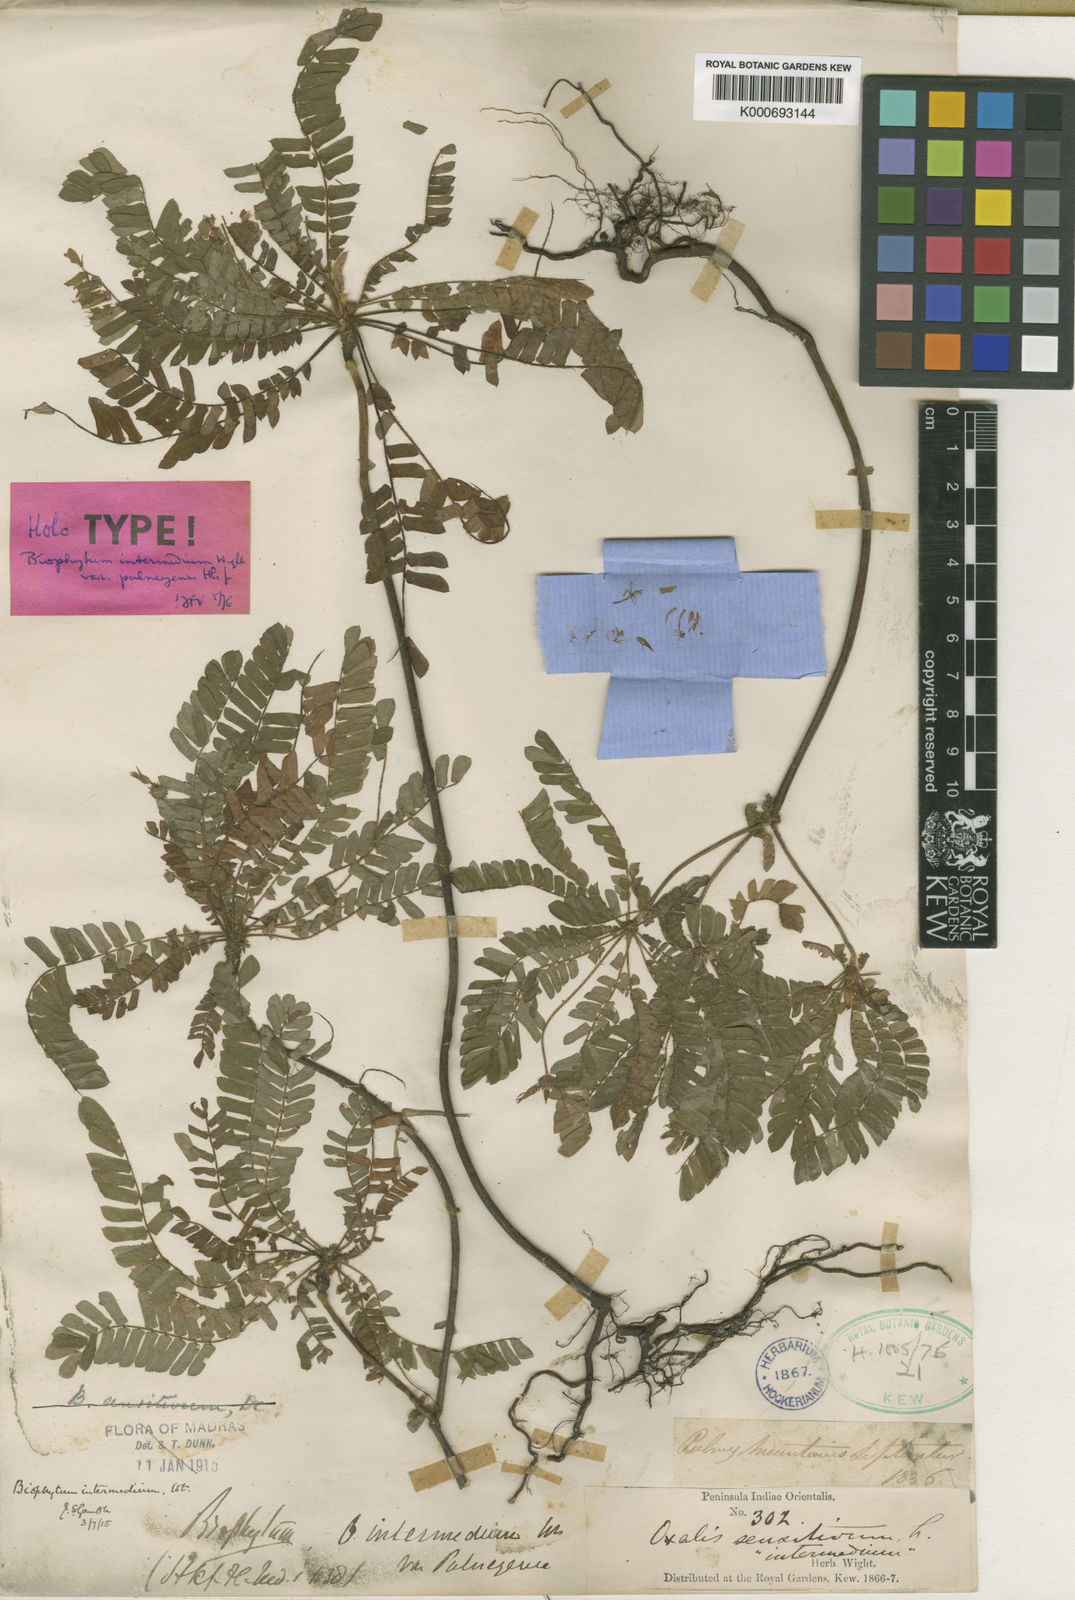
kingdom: Plantae
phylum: Tracheophyta
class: Magnoliopsida
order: Oxalidales
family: Oxalidaceae
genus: Biophytum
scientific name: Biophytum intermedium
